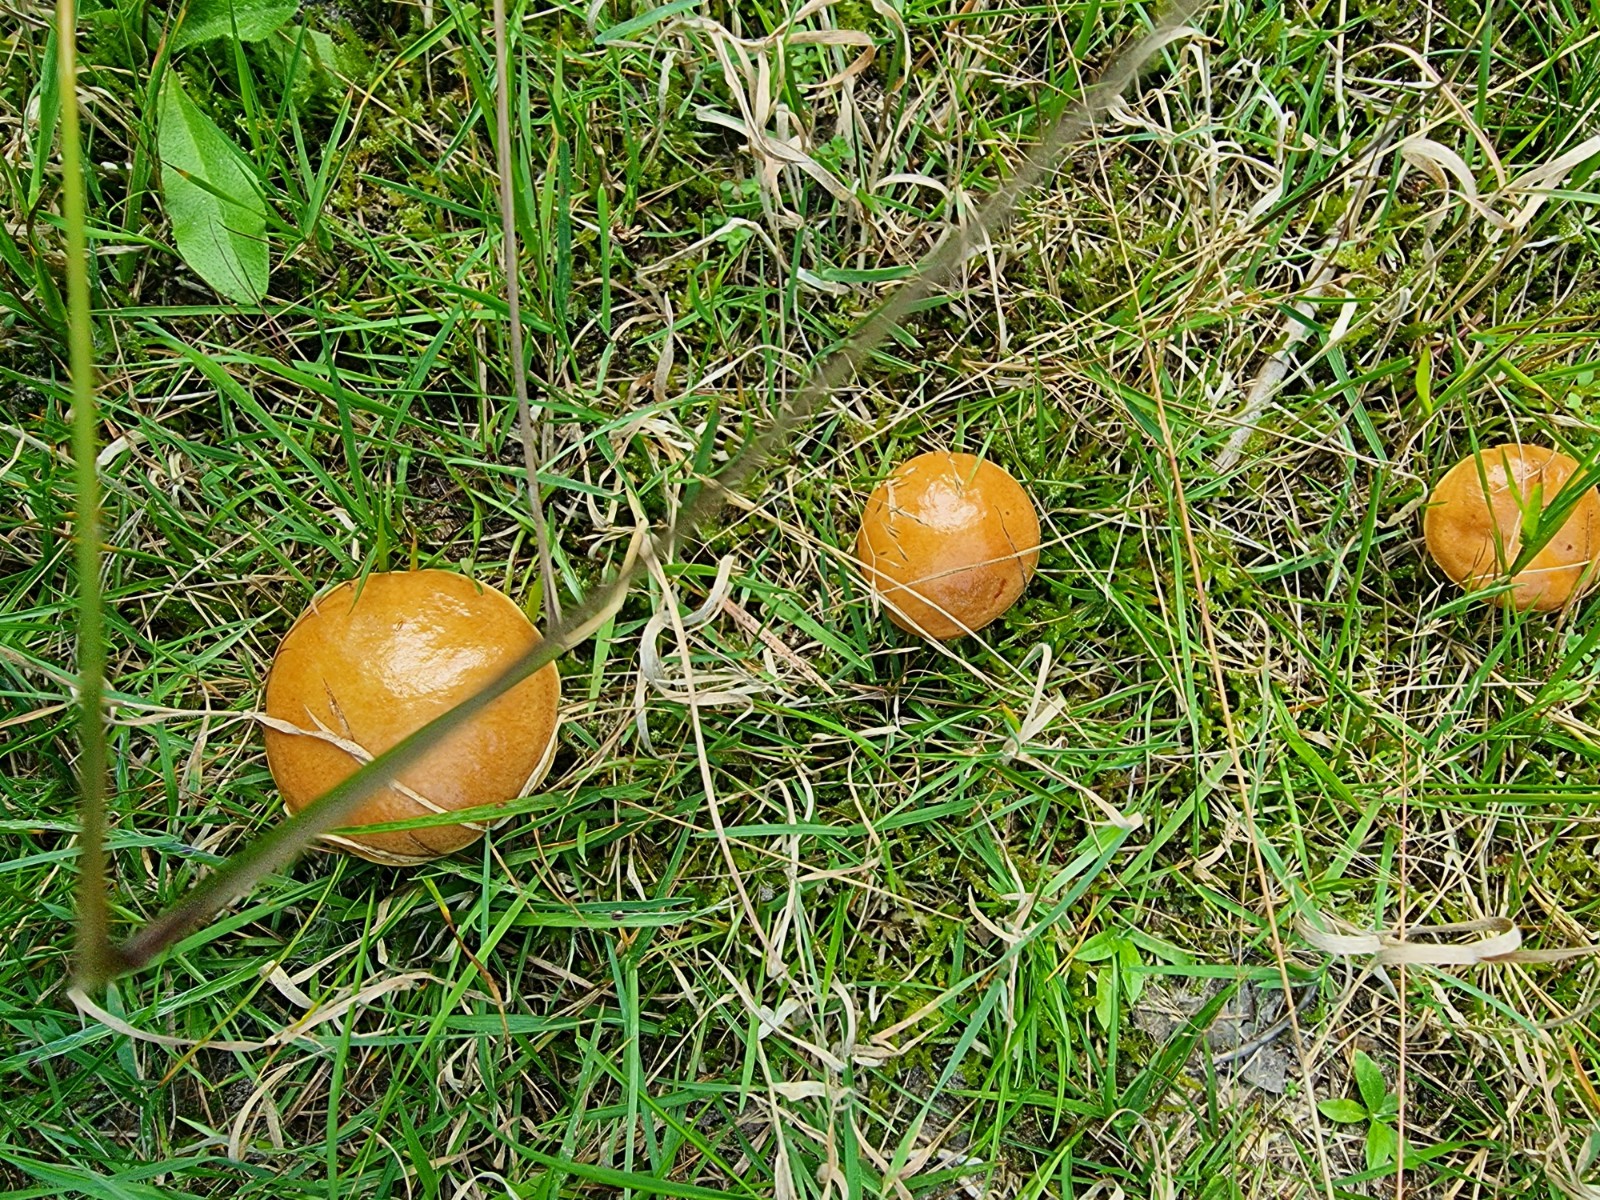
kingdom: Fungi
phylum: Basidiomycota
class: Agaricomycetes
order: Boletales
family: Suillaceae
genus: Suillus
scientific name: Suillus grevillei
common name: lærke-slimrørhat
